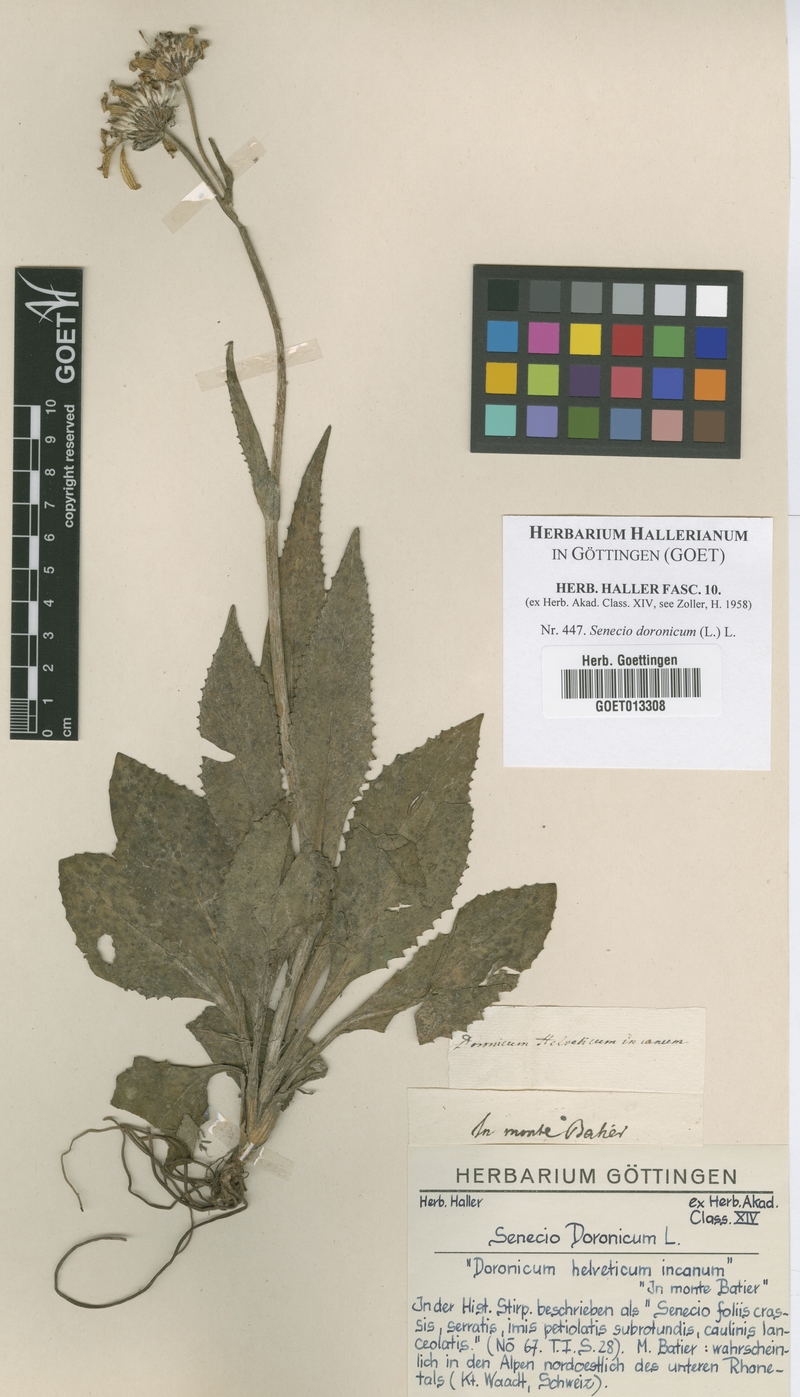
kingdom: Plantae
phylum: Tracheophyta
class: Magnoliopsida
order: Asterales
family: Asteraceae
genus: Senecio
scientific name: Senecio doronicum
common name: Chamois ragwort
